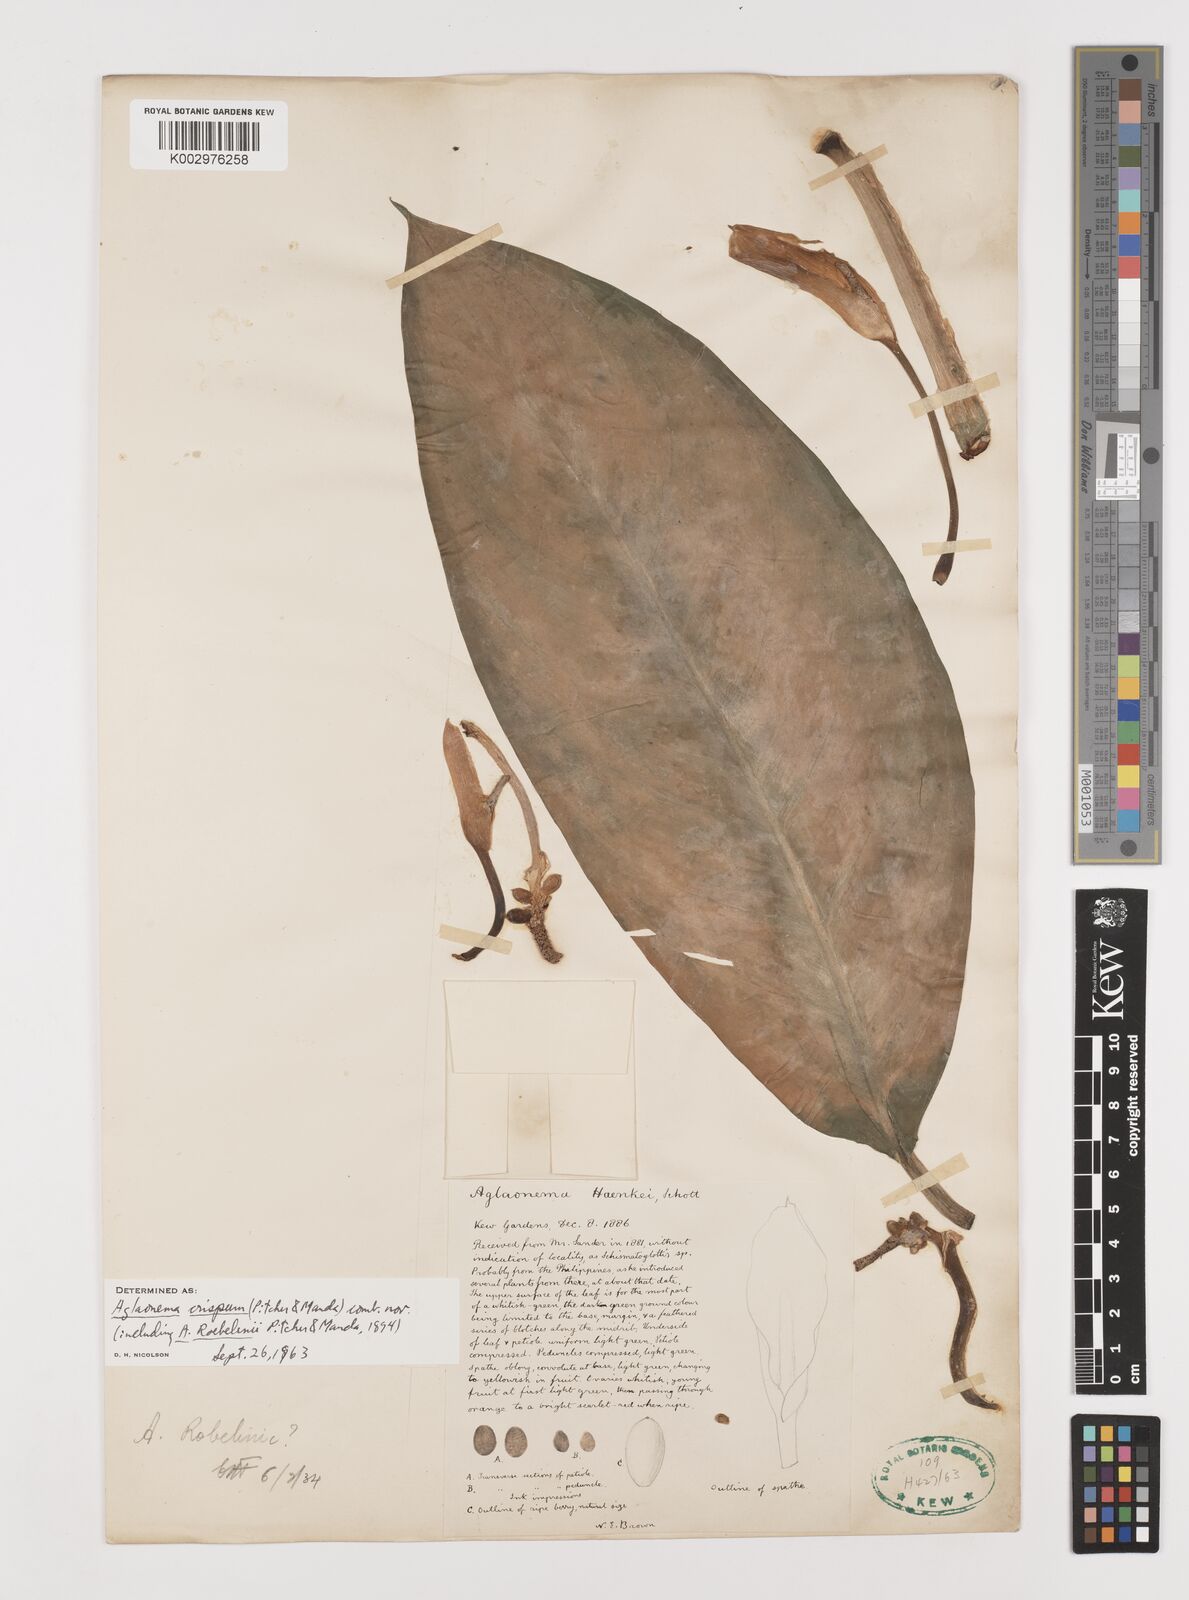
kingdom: Plantae
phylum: Tracheophyta
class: Liliopsida
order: Alismatales
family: Araceae
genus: Aglaonema
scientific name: Aglaonema robeleynii
